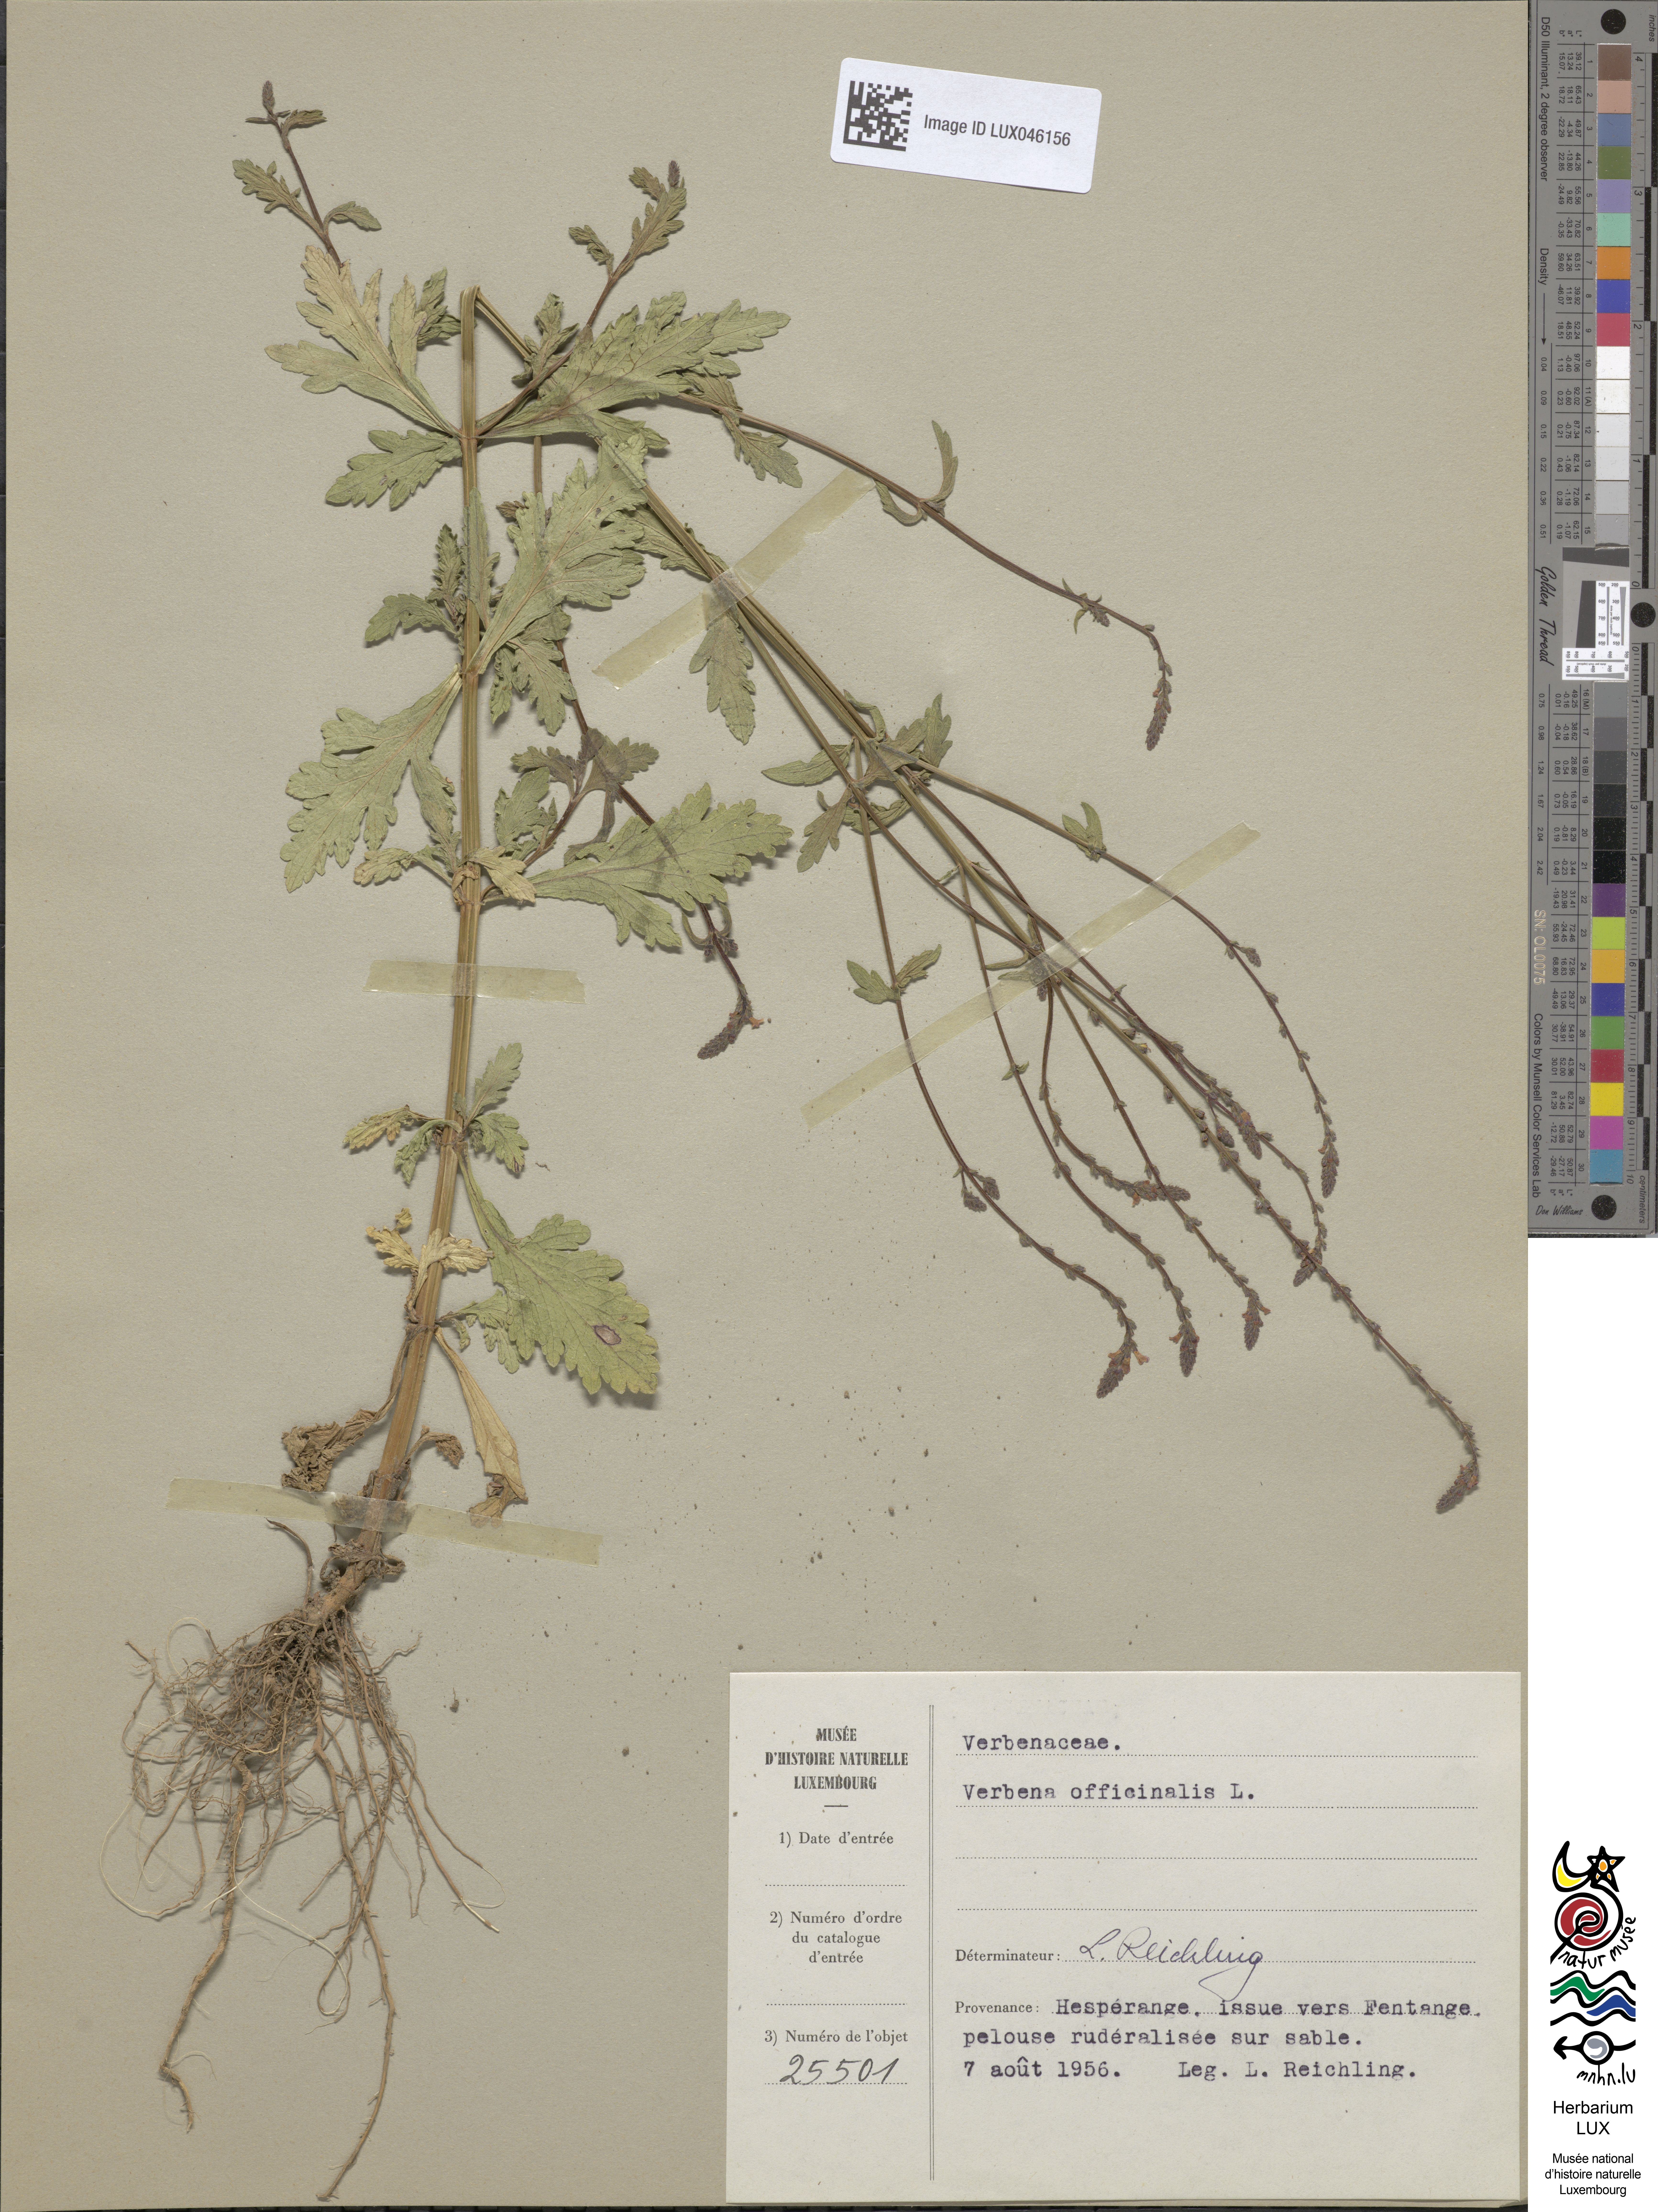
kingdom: Plantae
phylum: Tracheophyta
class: Magnoliopsida
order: Lamiales
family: Verbenaceae
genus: Verbena
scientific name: Verbena officinalis
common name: Vervain
